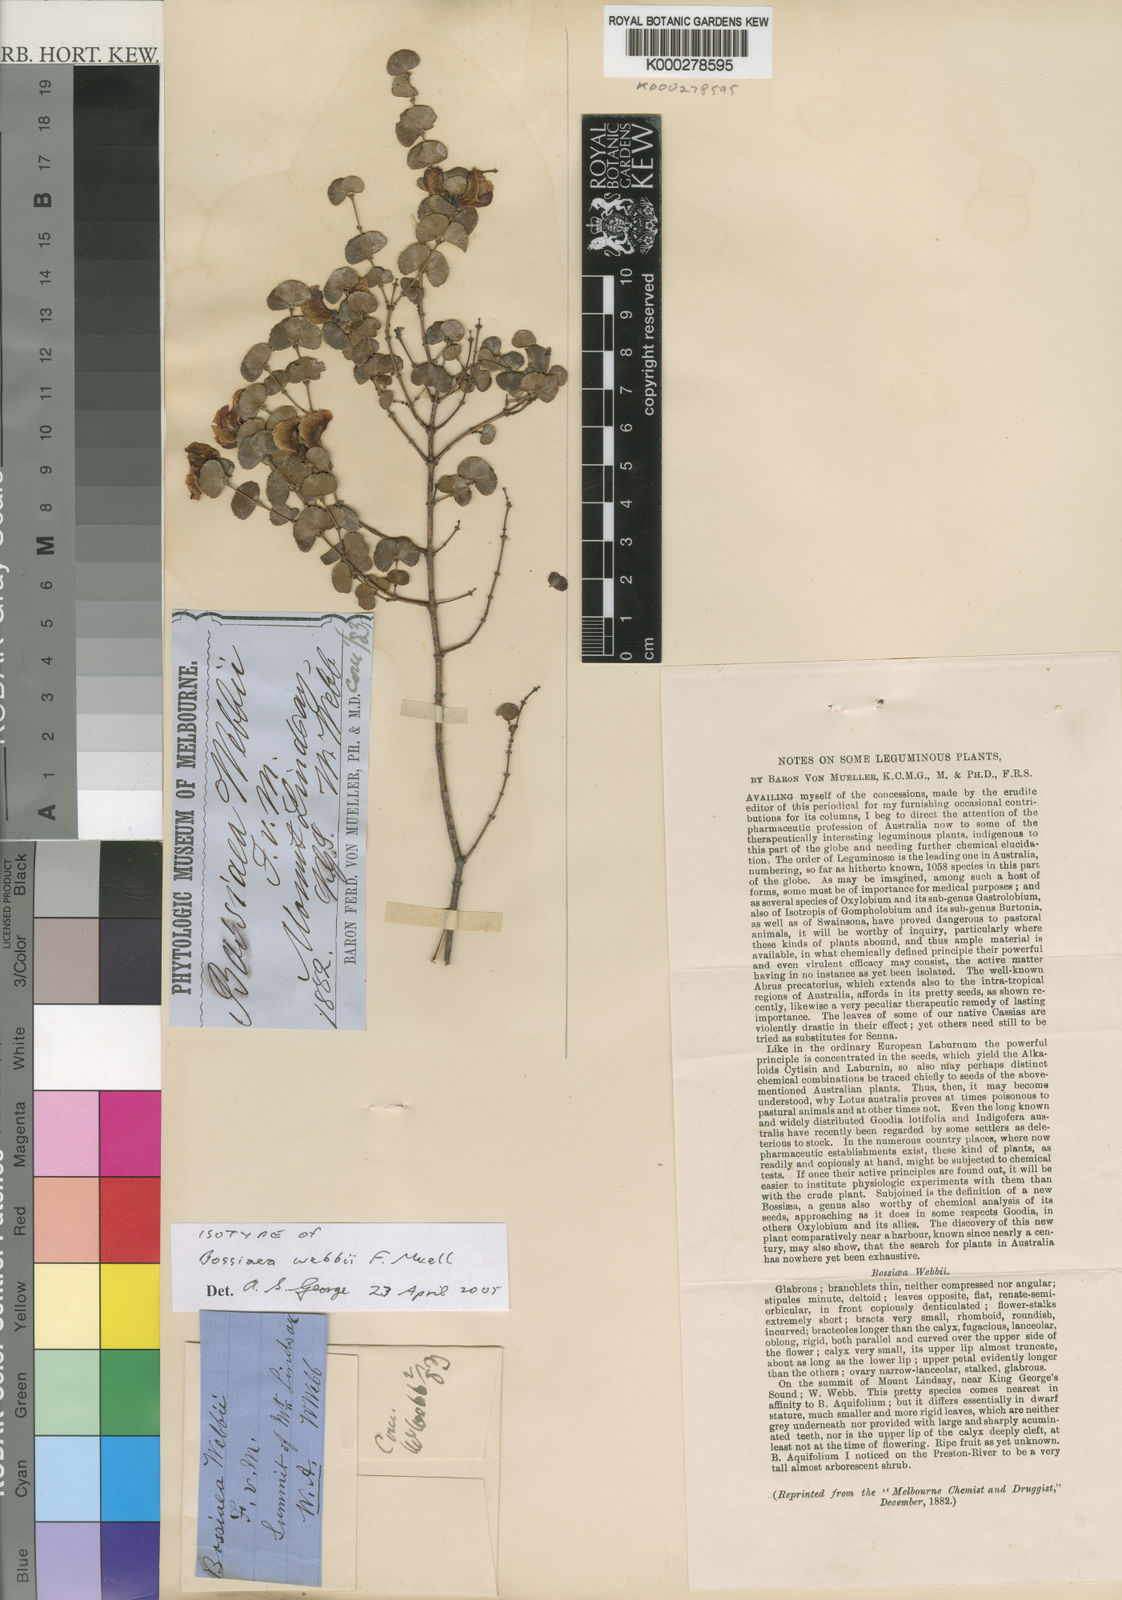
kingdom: Plantae
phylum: Tracheophyta
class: Magnoliopsida
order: Fabales
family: Fabaceae
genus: Bossiaea
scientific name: Bossiaea webbii
